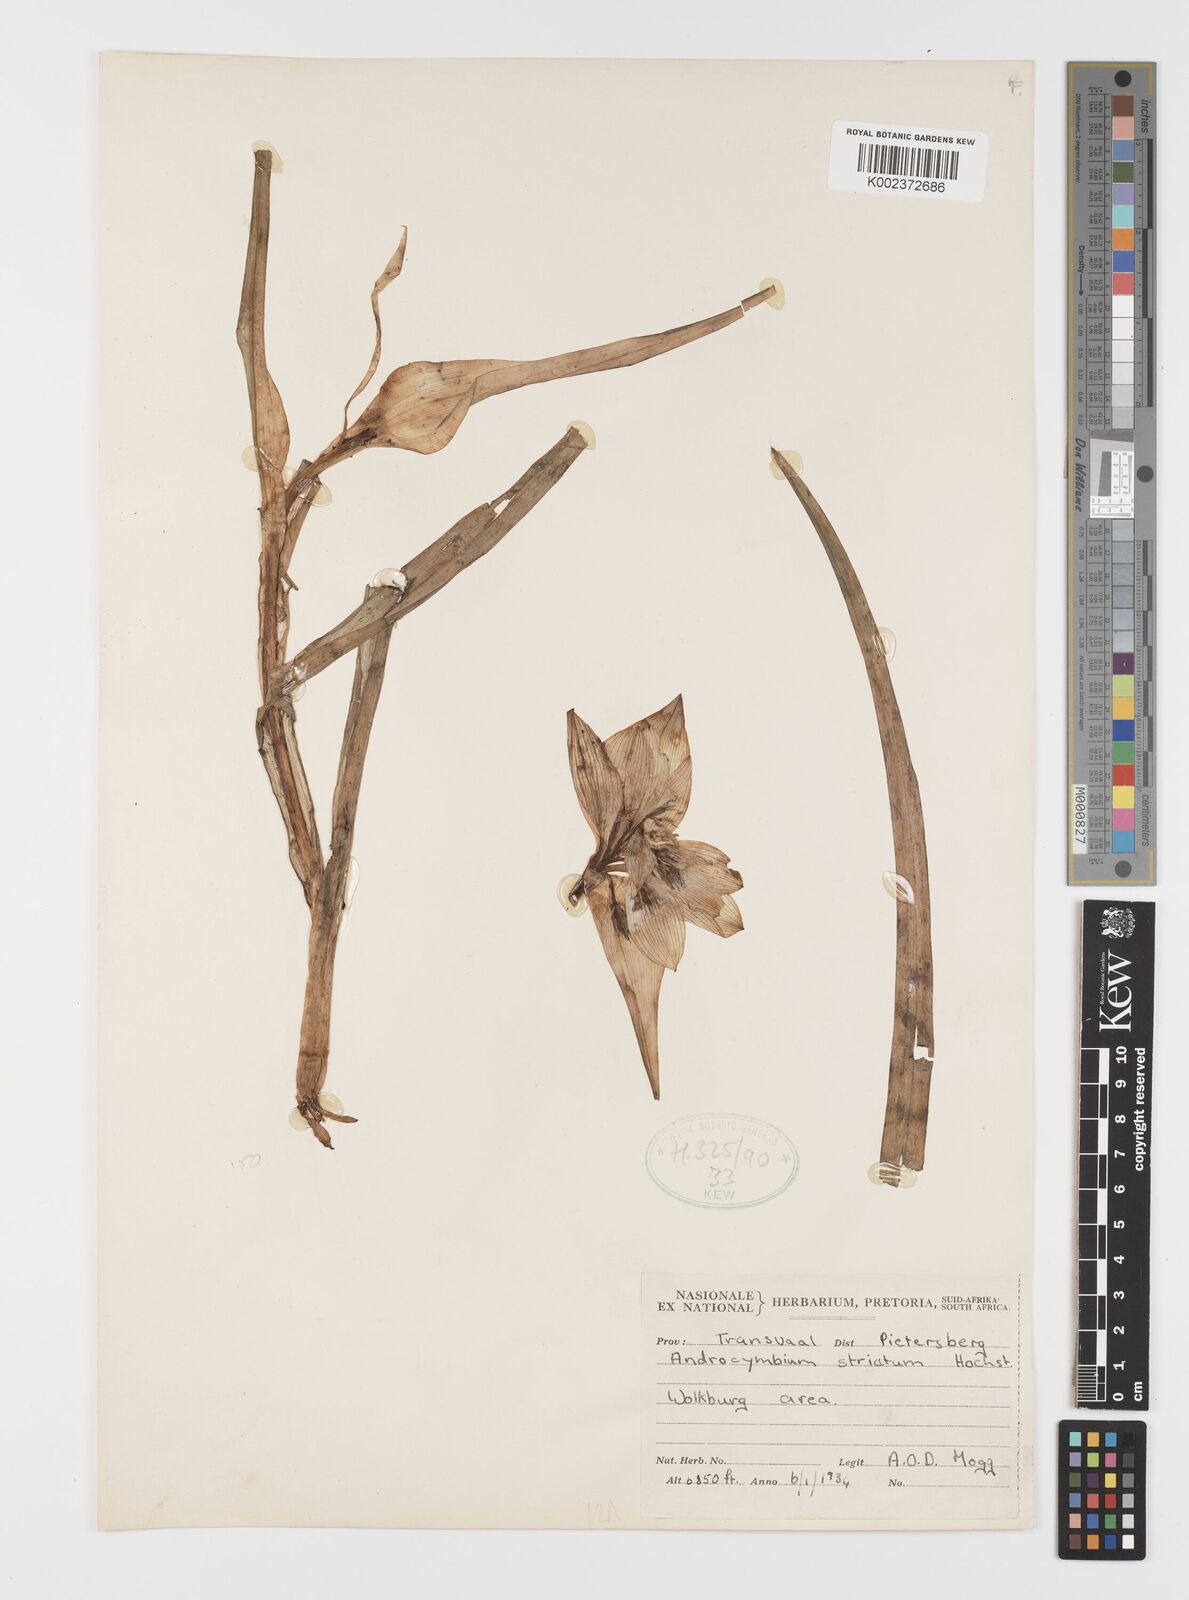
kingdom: Plantae
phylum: Tracheophyta
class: Liliopsida
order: Liliales
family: Colchicaceae
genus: Colchicum
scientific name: Colchicum striatum
